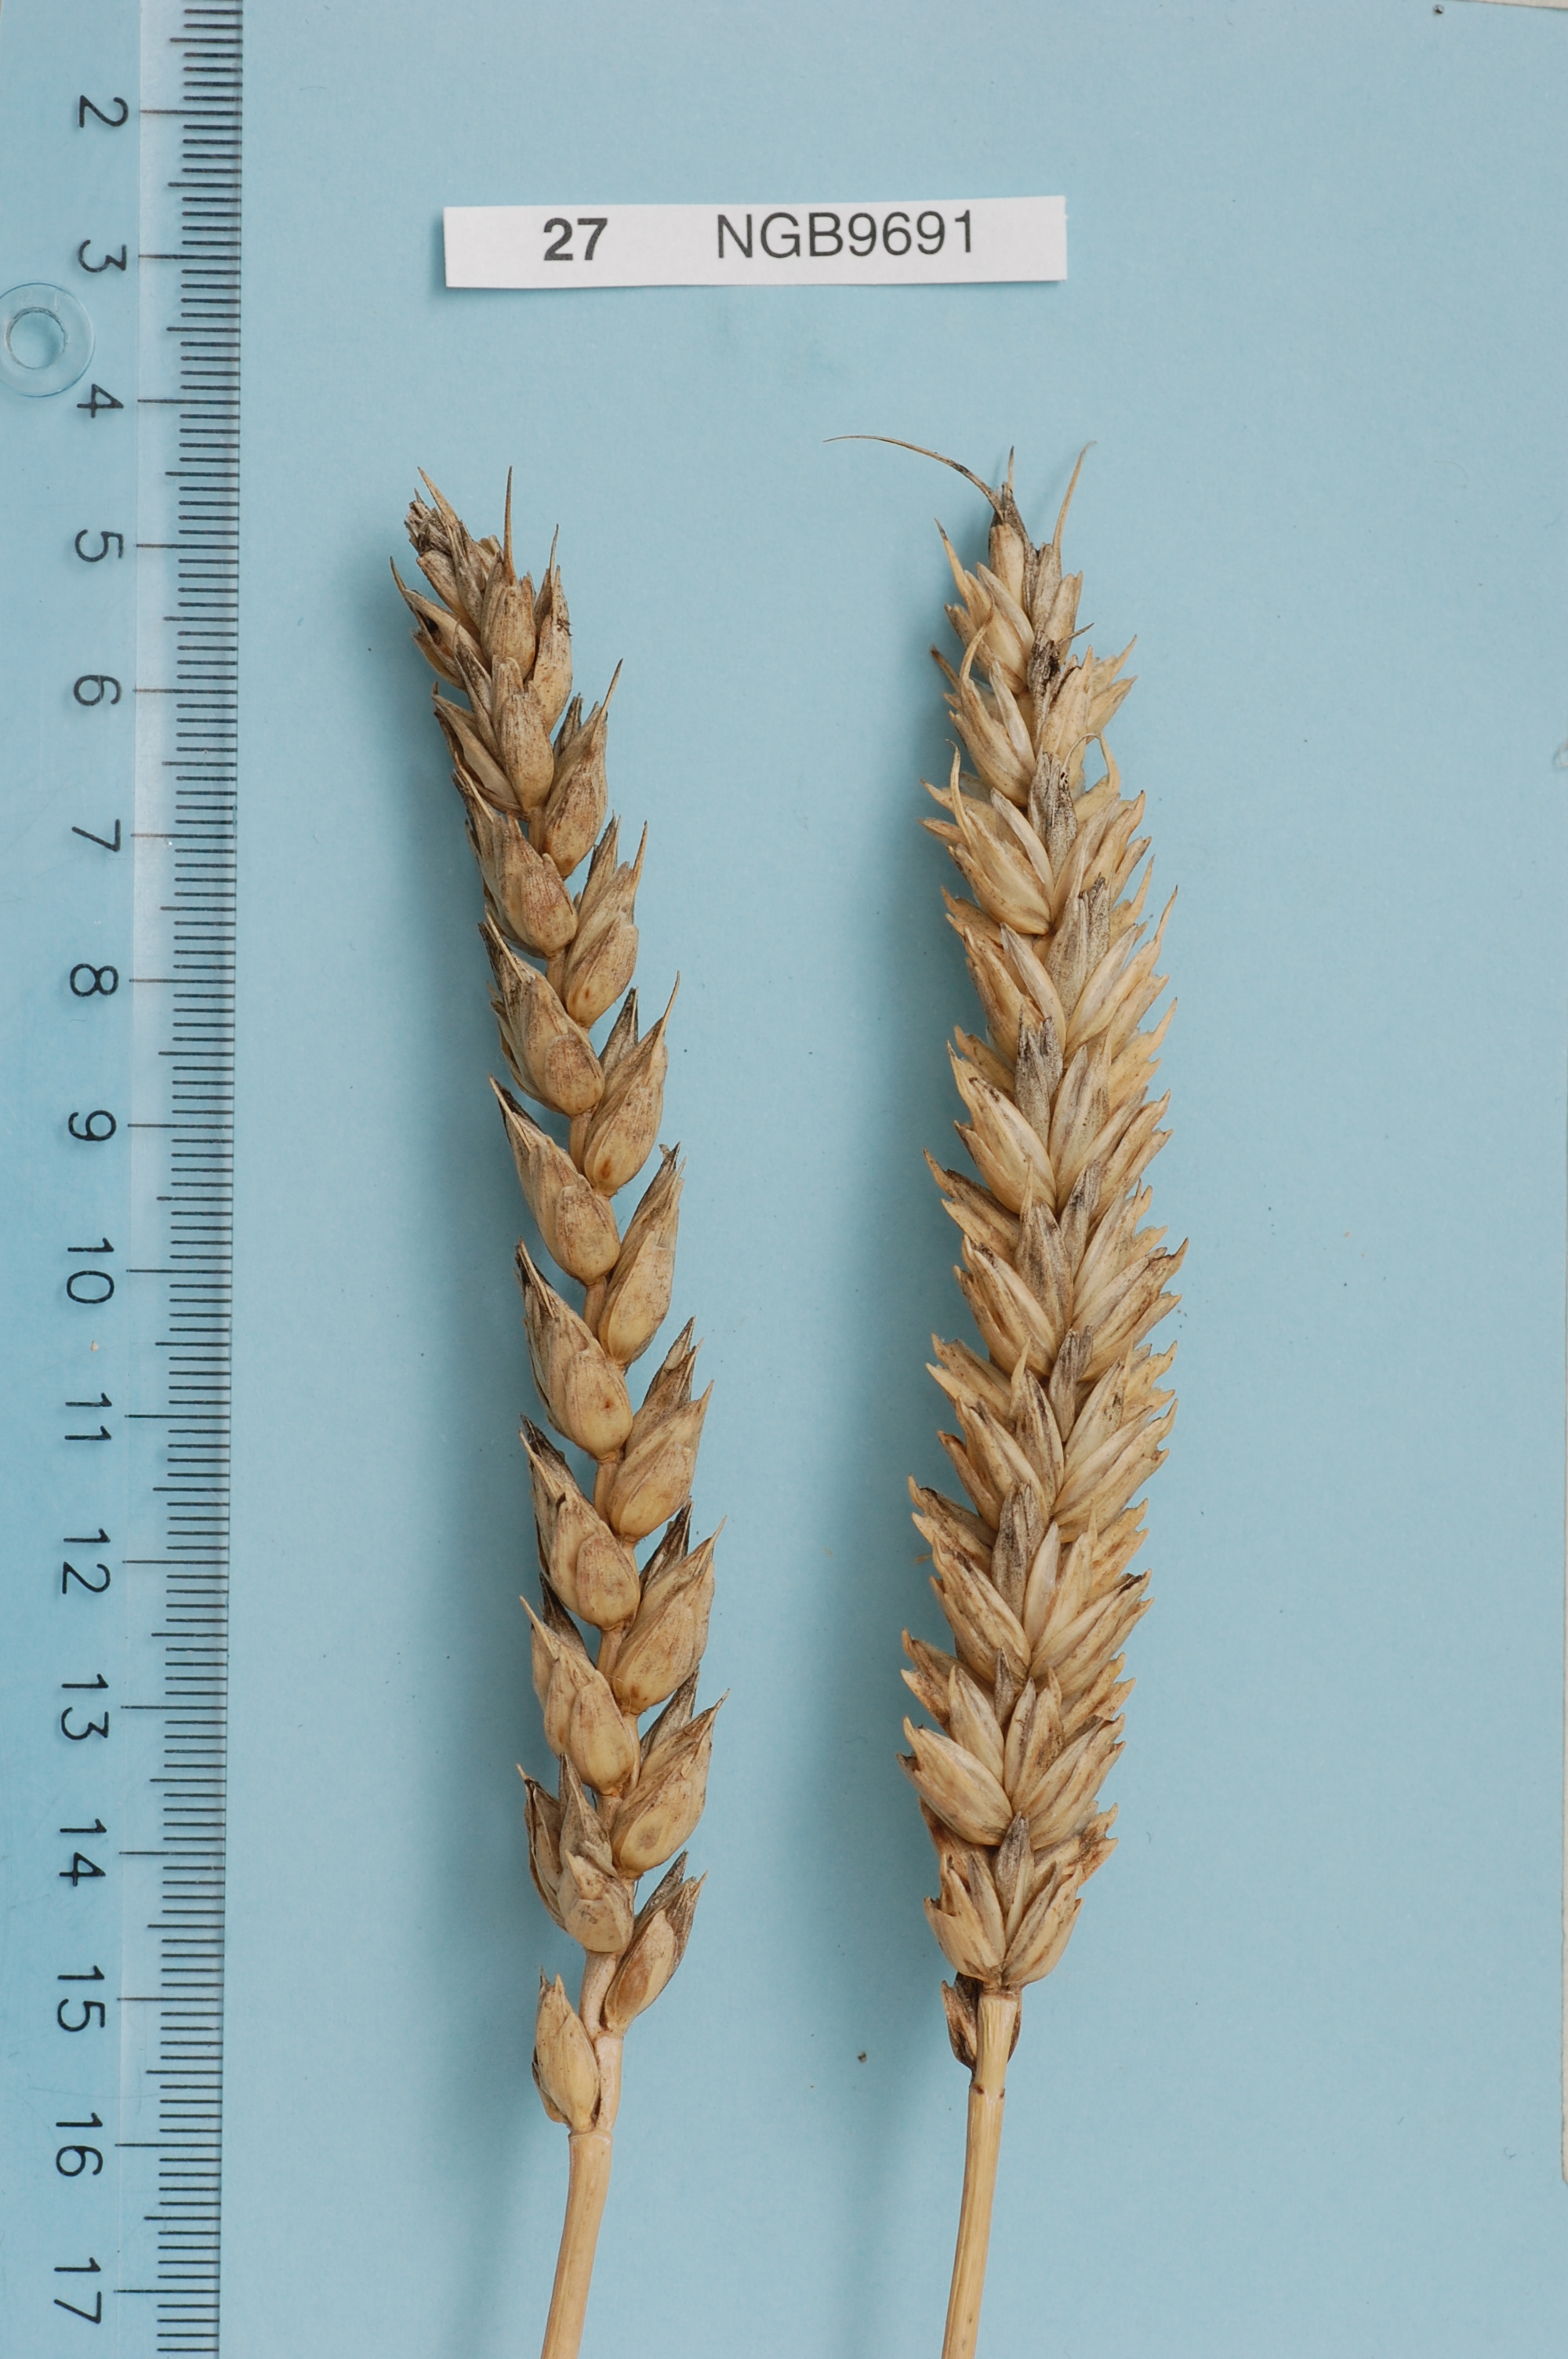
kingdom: Plantae
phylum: Tracheophyta
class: Liliopsida
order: Poales
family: Poaceae
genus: Triticum
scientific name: Triticum aestivum
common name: Common wheat
